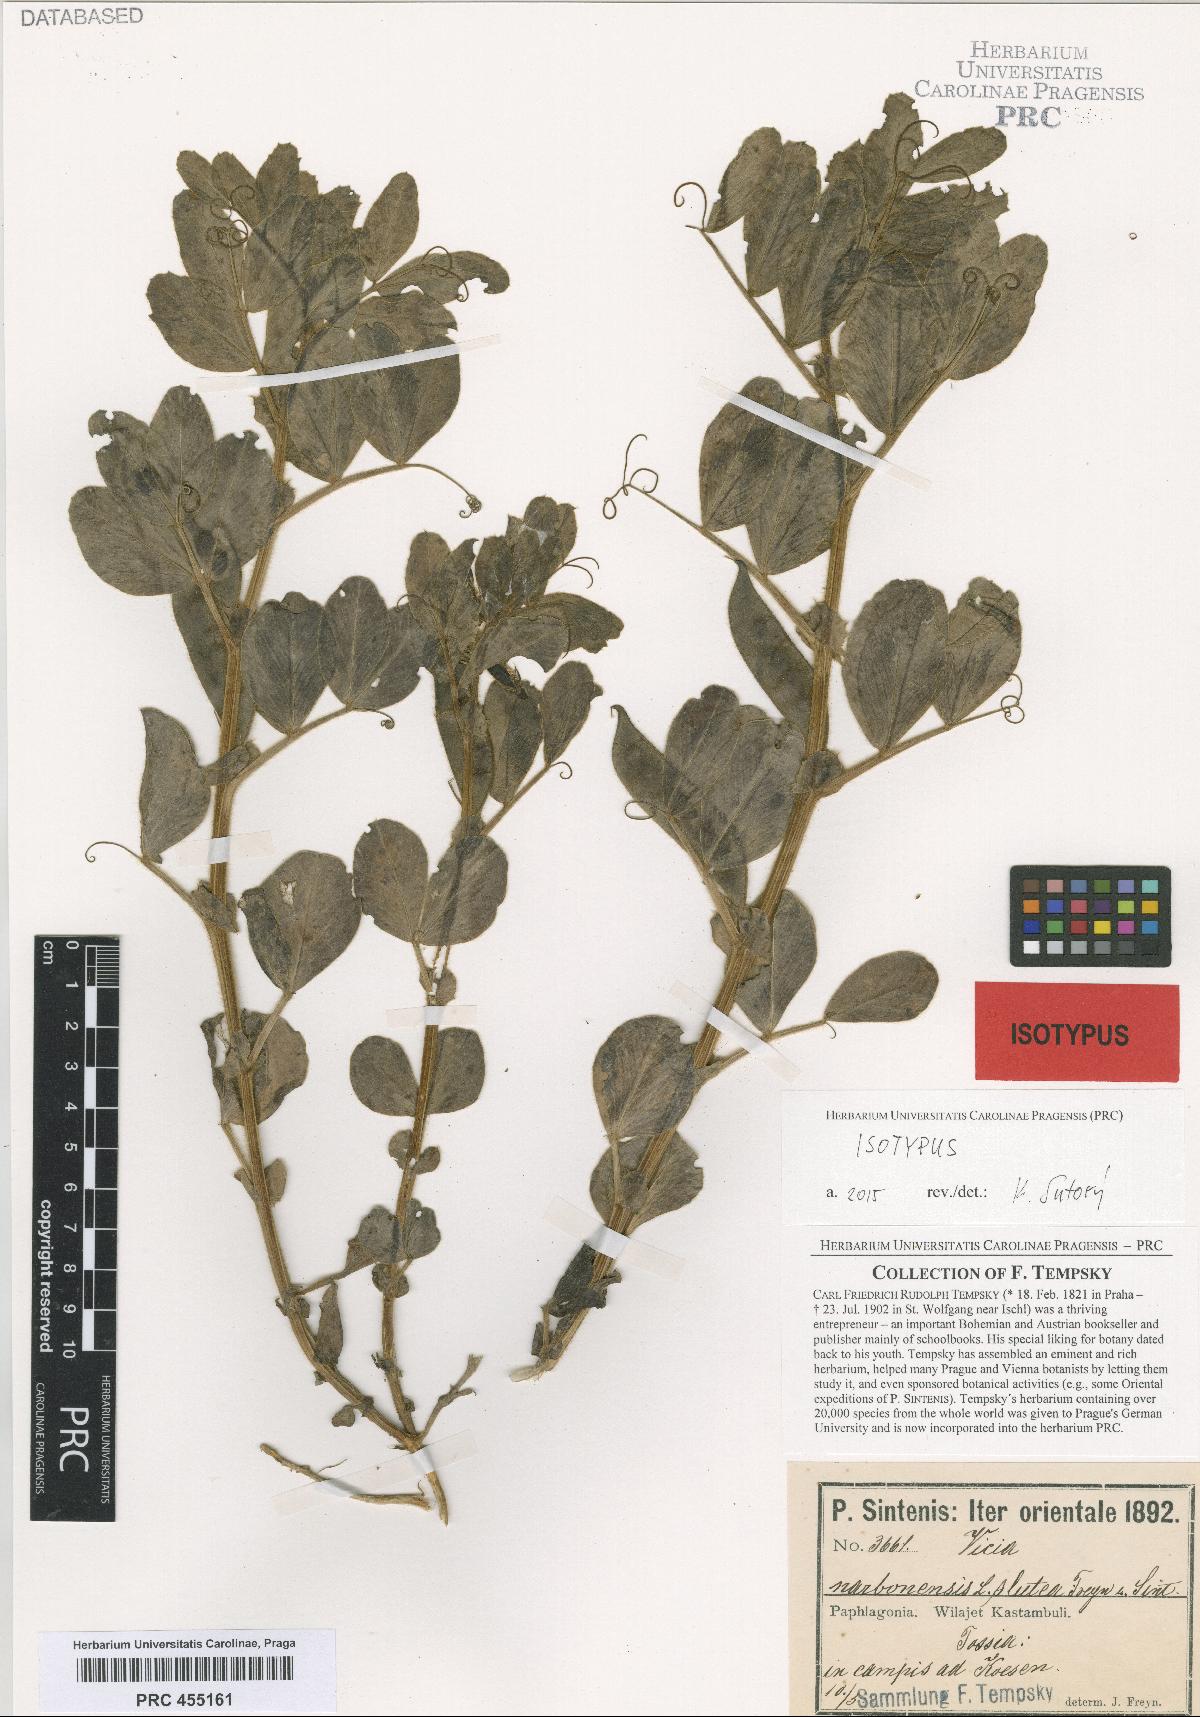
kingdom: Plantae
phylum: Tracheophyta
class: Magnoliopsida
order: Fabales
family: Fabaceae
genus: Vicia
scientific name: Vicia johannis
